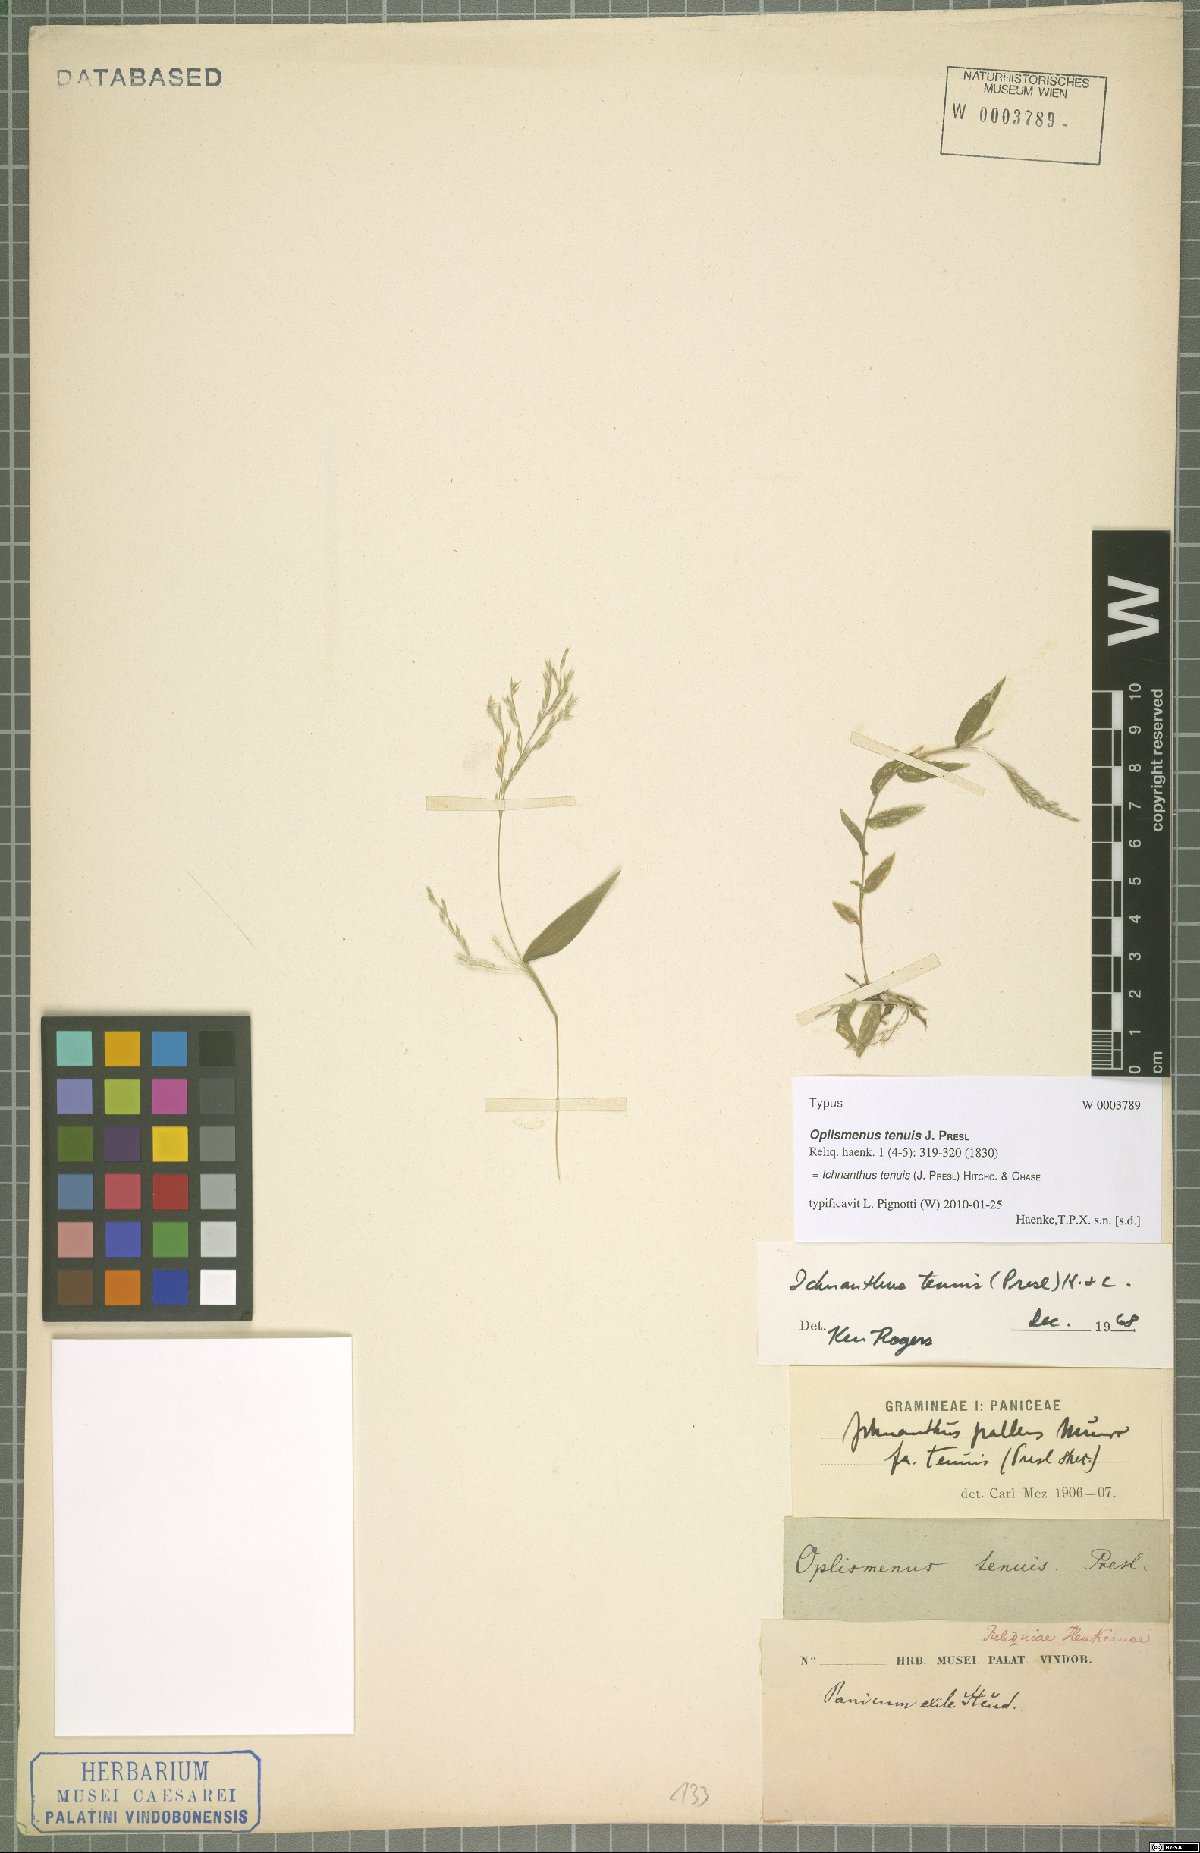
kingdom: Plantae
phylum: Tracheophyta
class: Liliopsida
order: Poales
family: Poaceae
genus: Ichnanthus
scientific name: Ichnanthus tenuis
